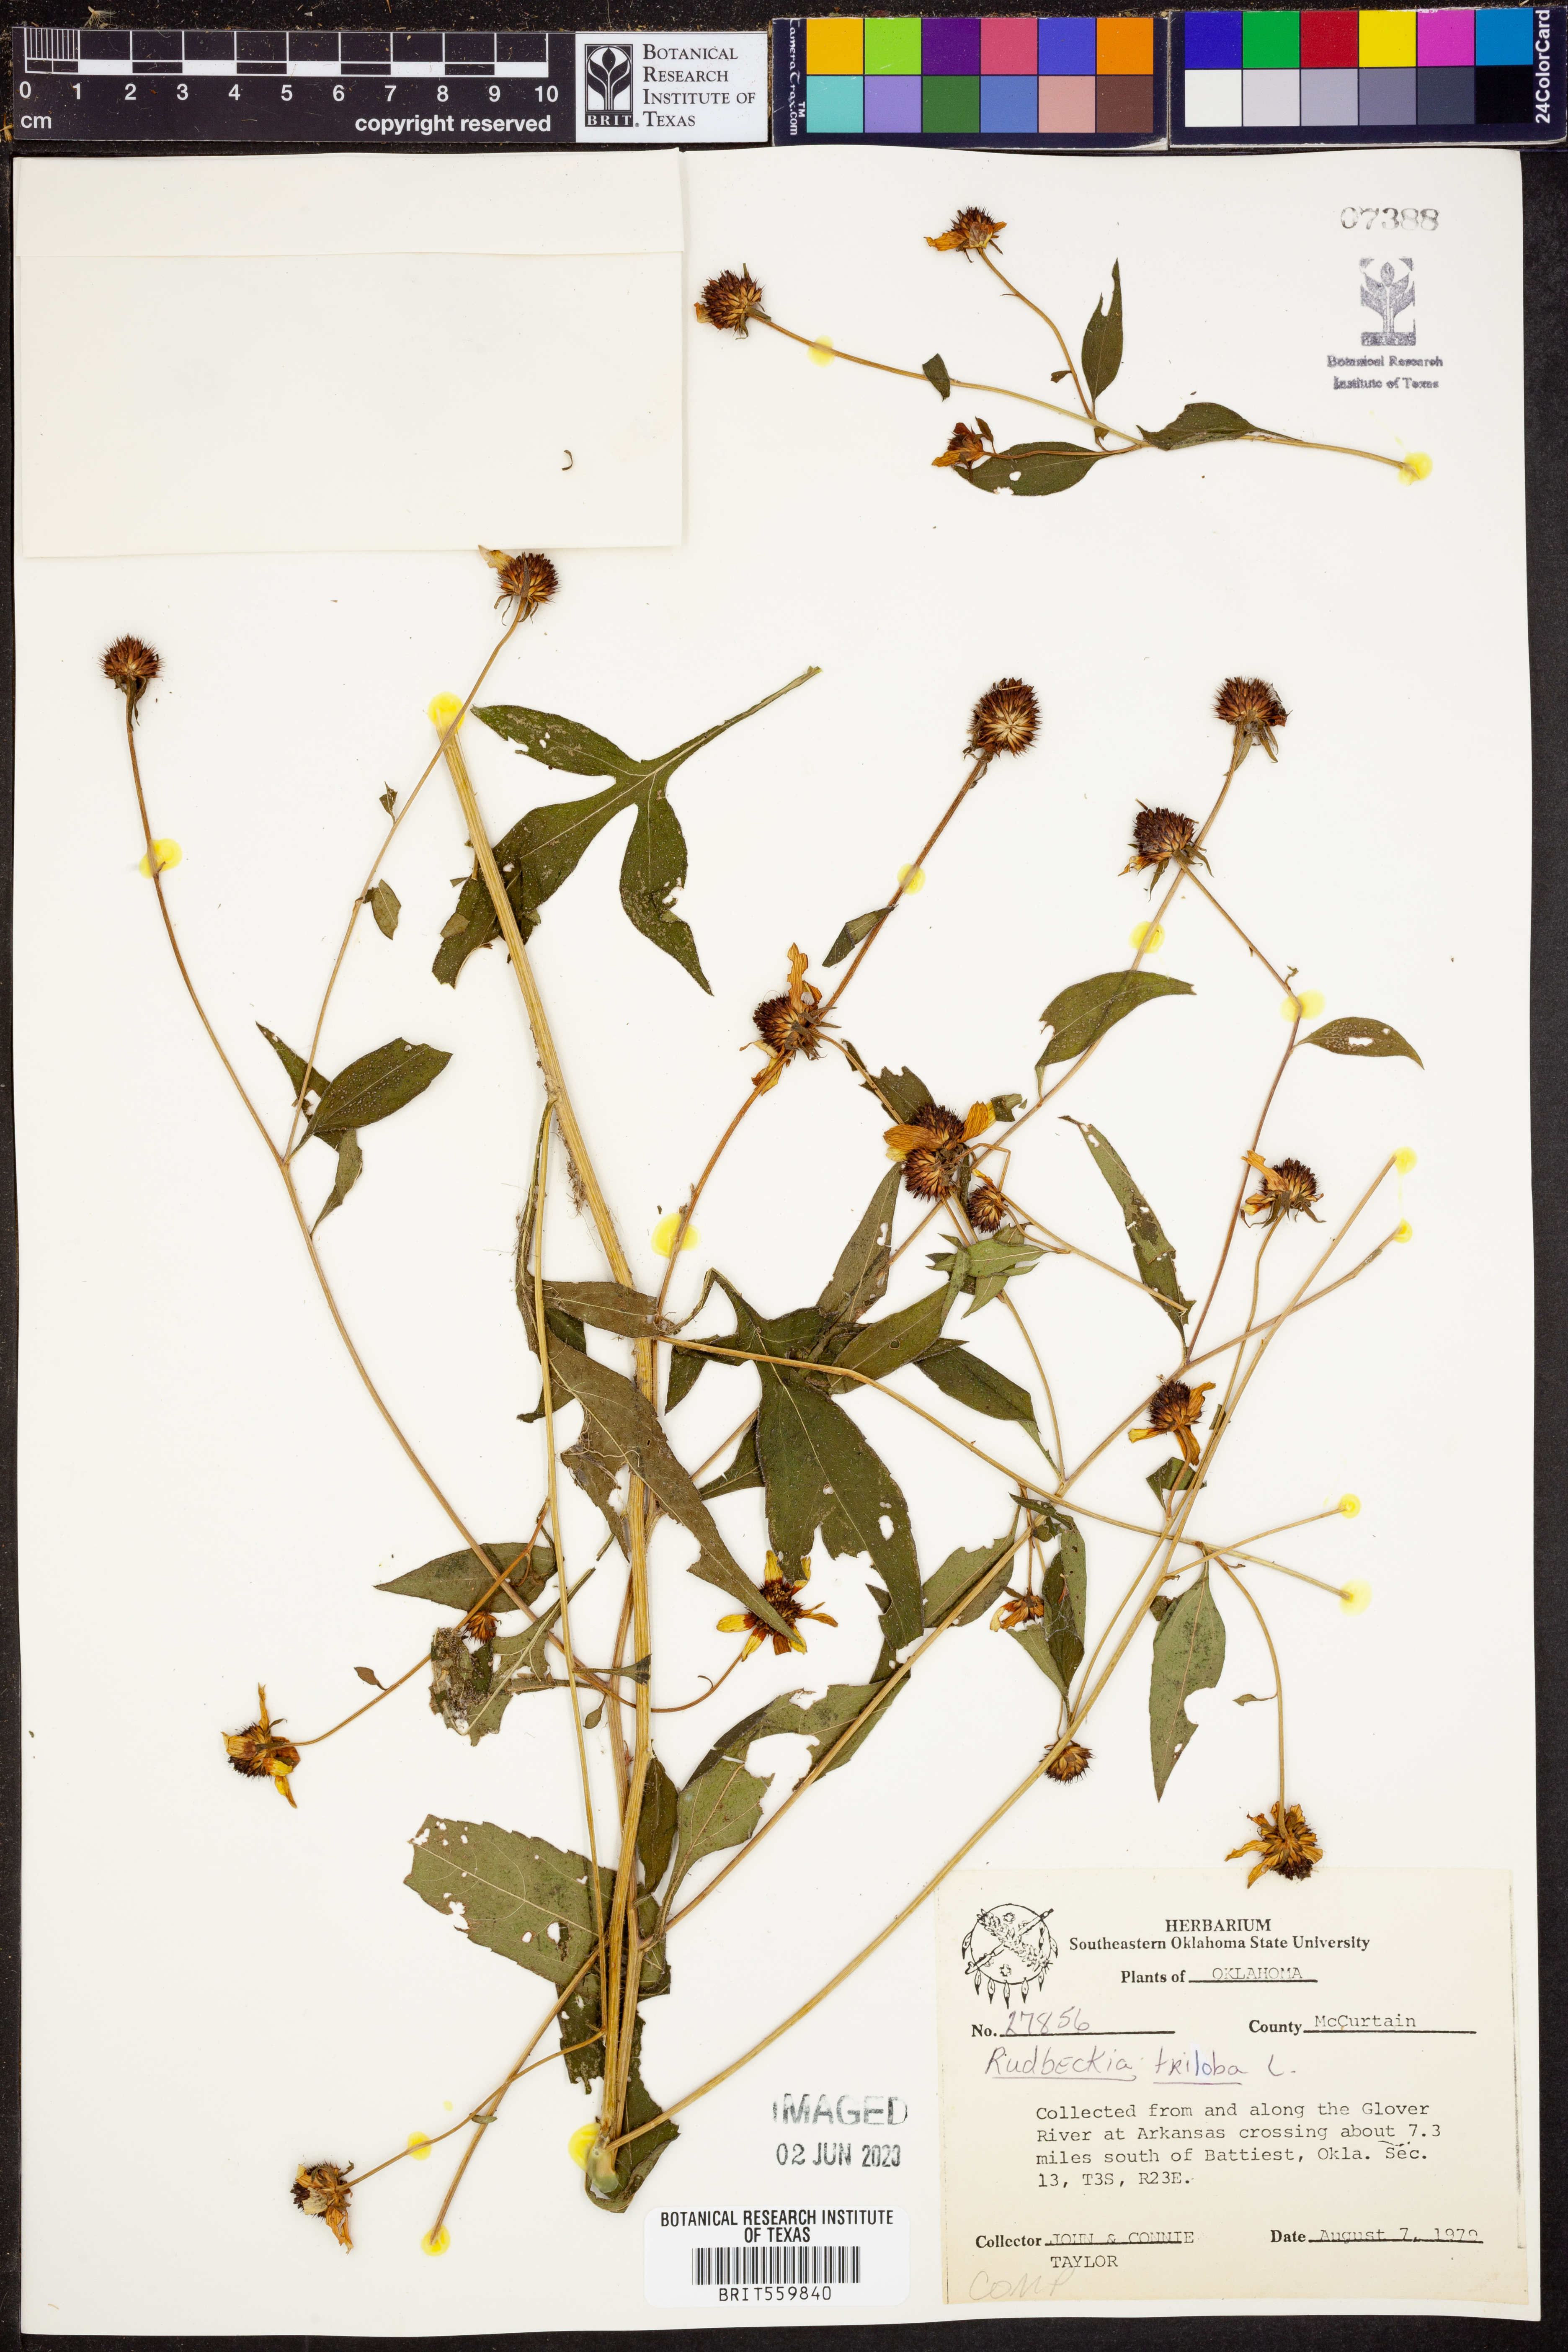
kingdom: Plantae
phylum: Tracheophyta
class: Magnoliopsida
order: Asterales
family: Asteraceae
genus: Rudbeckia
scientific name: Rudbeckia triloba
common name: Thin-leaved coneflower
